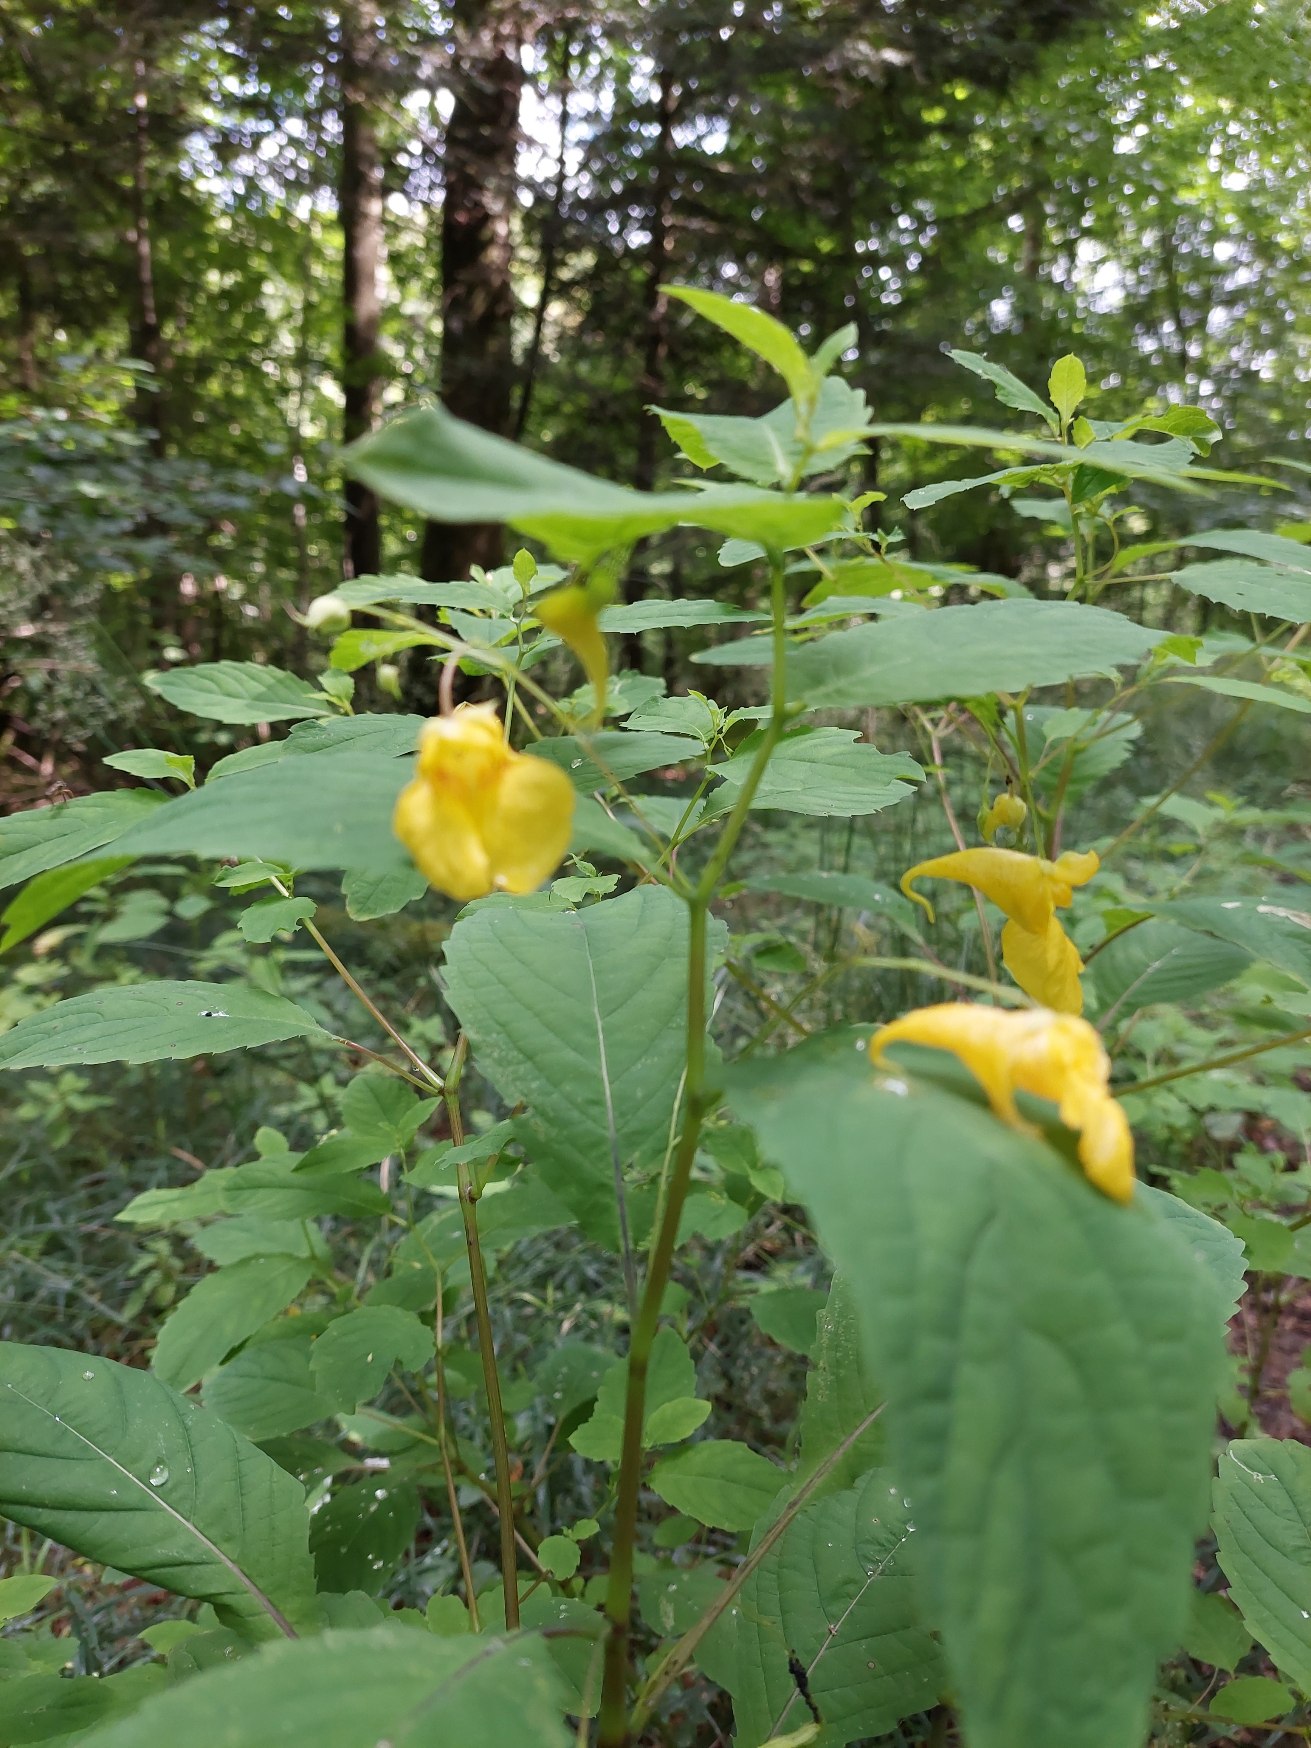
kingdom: Plantae
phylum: Tracheophyta
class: Magnoliopsida
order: Ericales
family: Balsaminaceae
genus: Impatiens
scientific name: Impatiens noli-tangere
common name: Spring-balsamin
